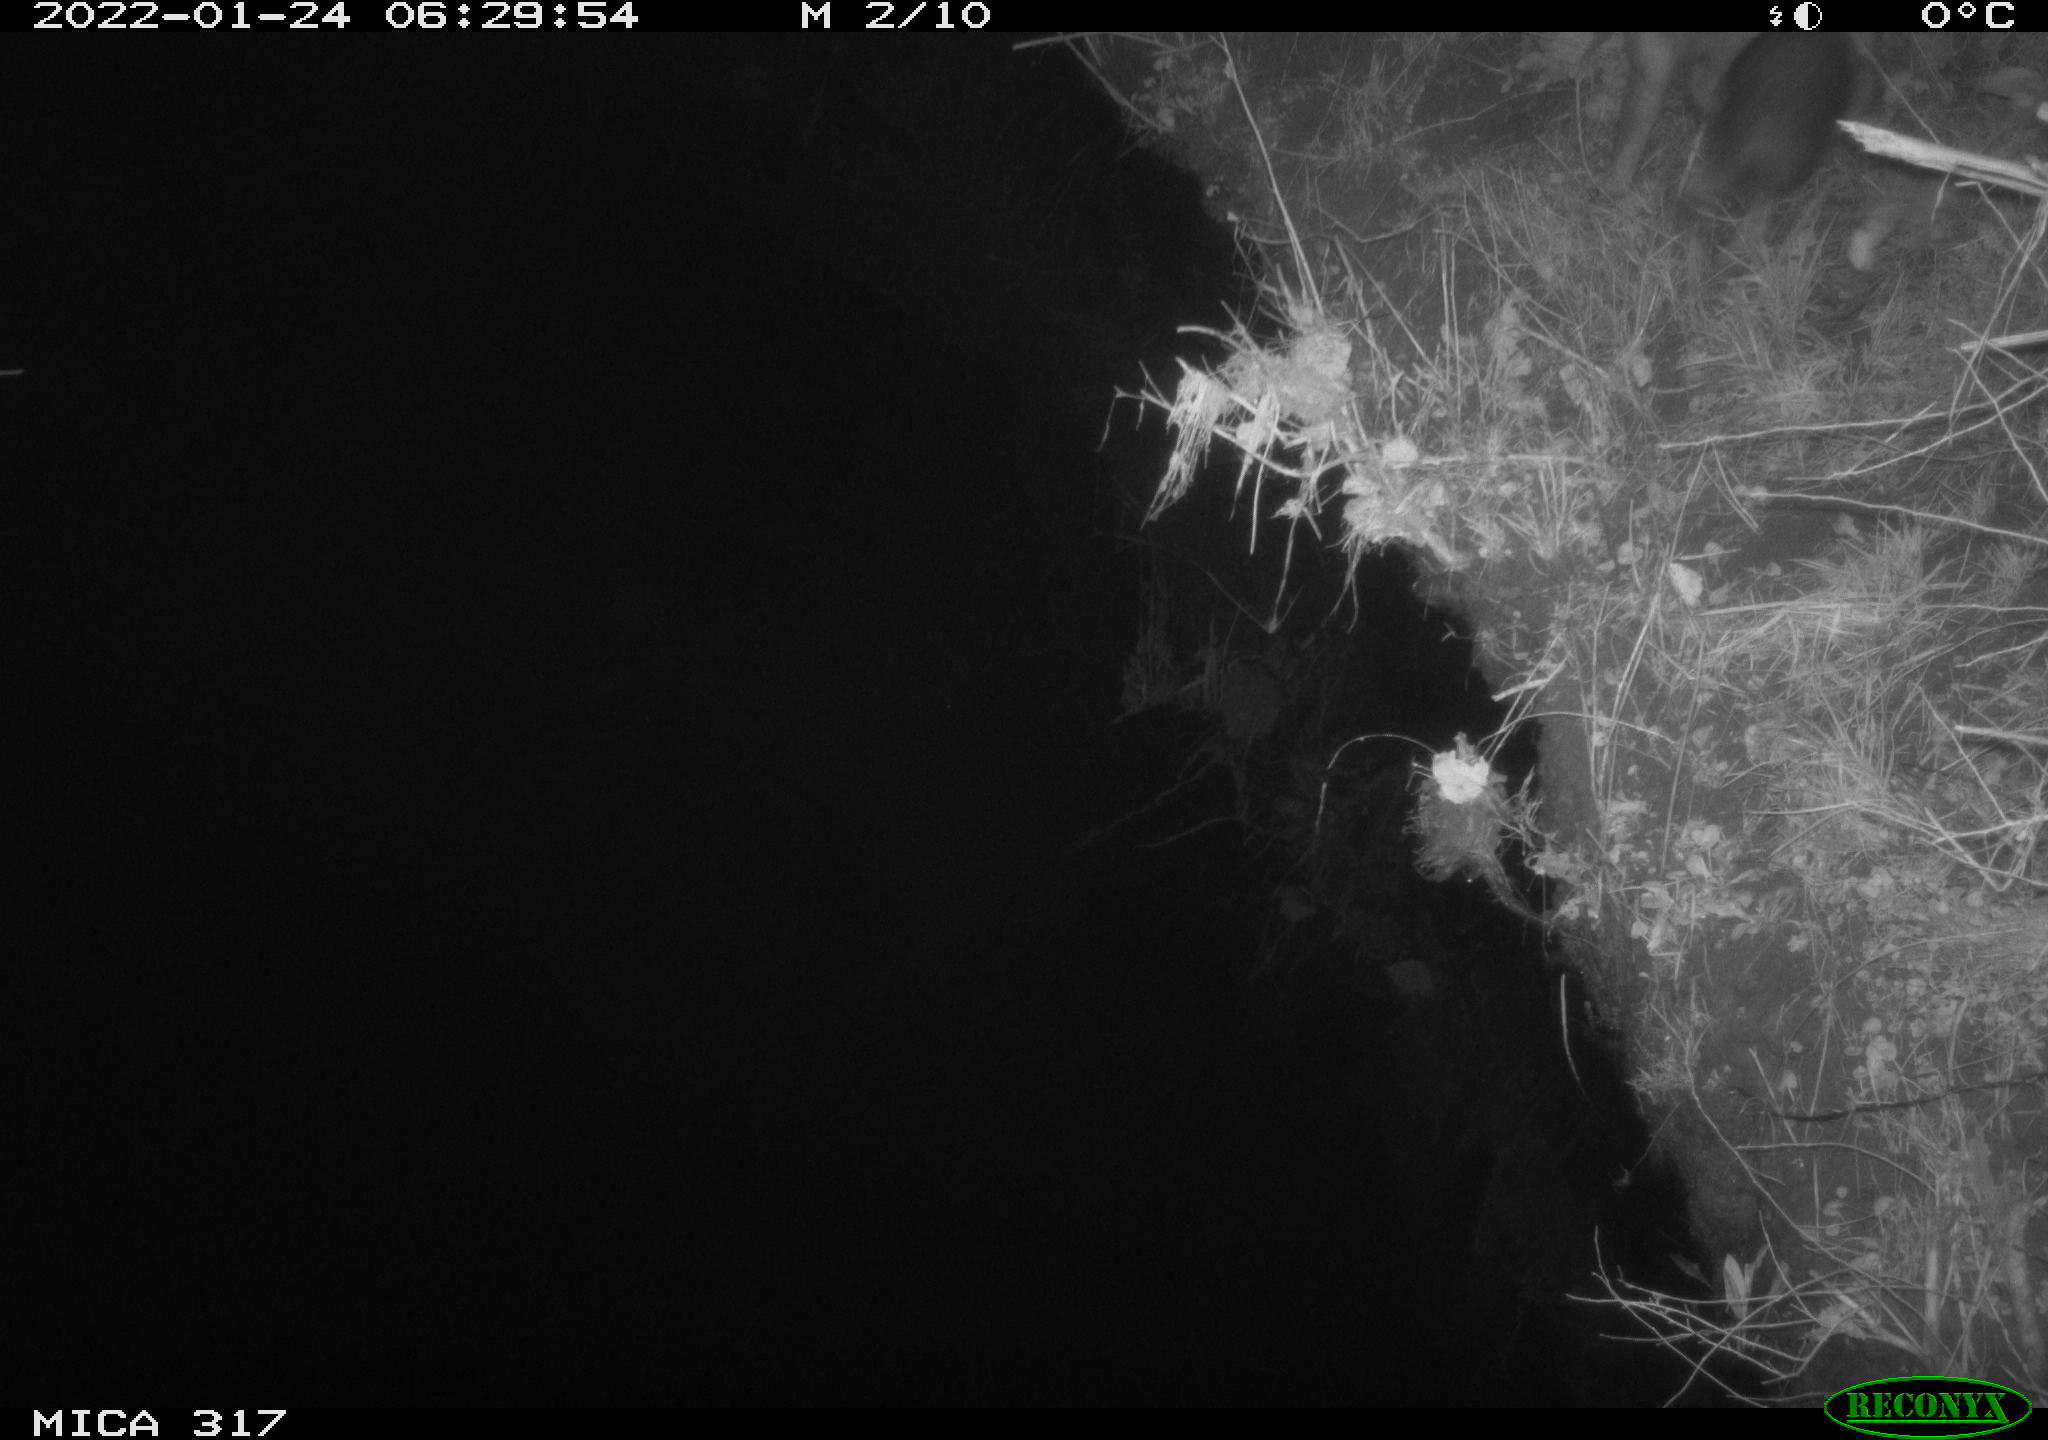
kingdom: Animalia
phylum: Chordata
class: Mammalia
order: Carnivora
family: Canidae
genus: Vulpes
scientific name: Vulpes vulpes
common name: Red fox
